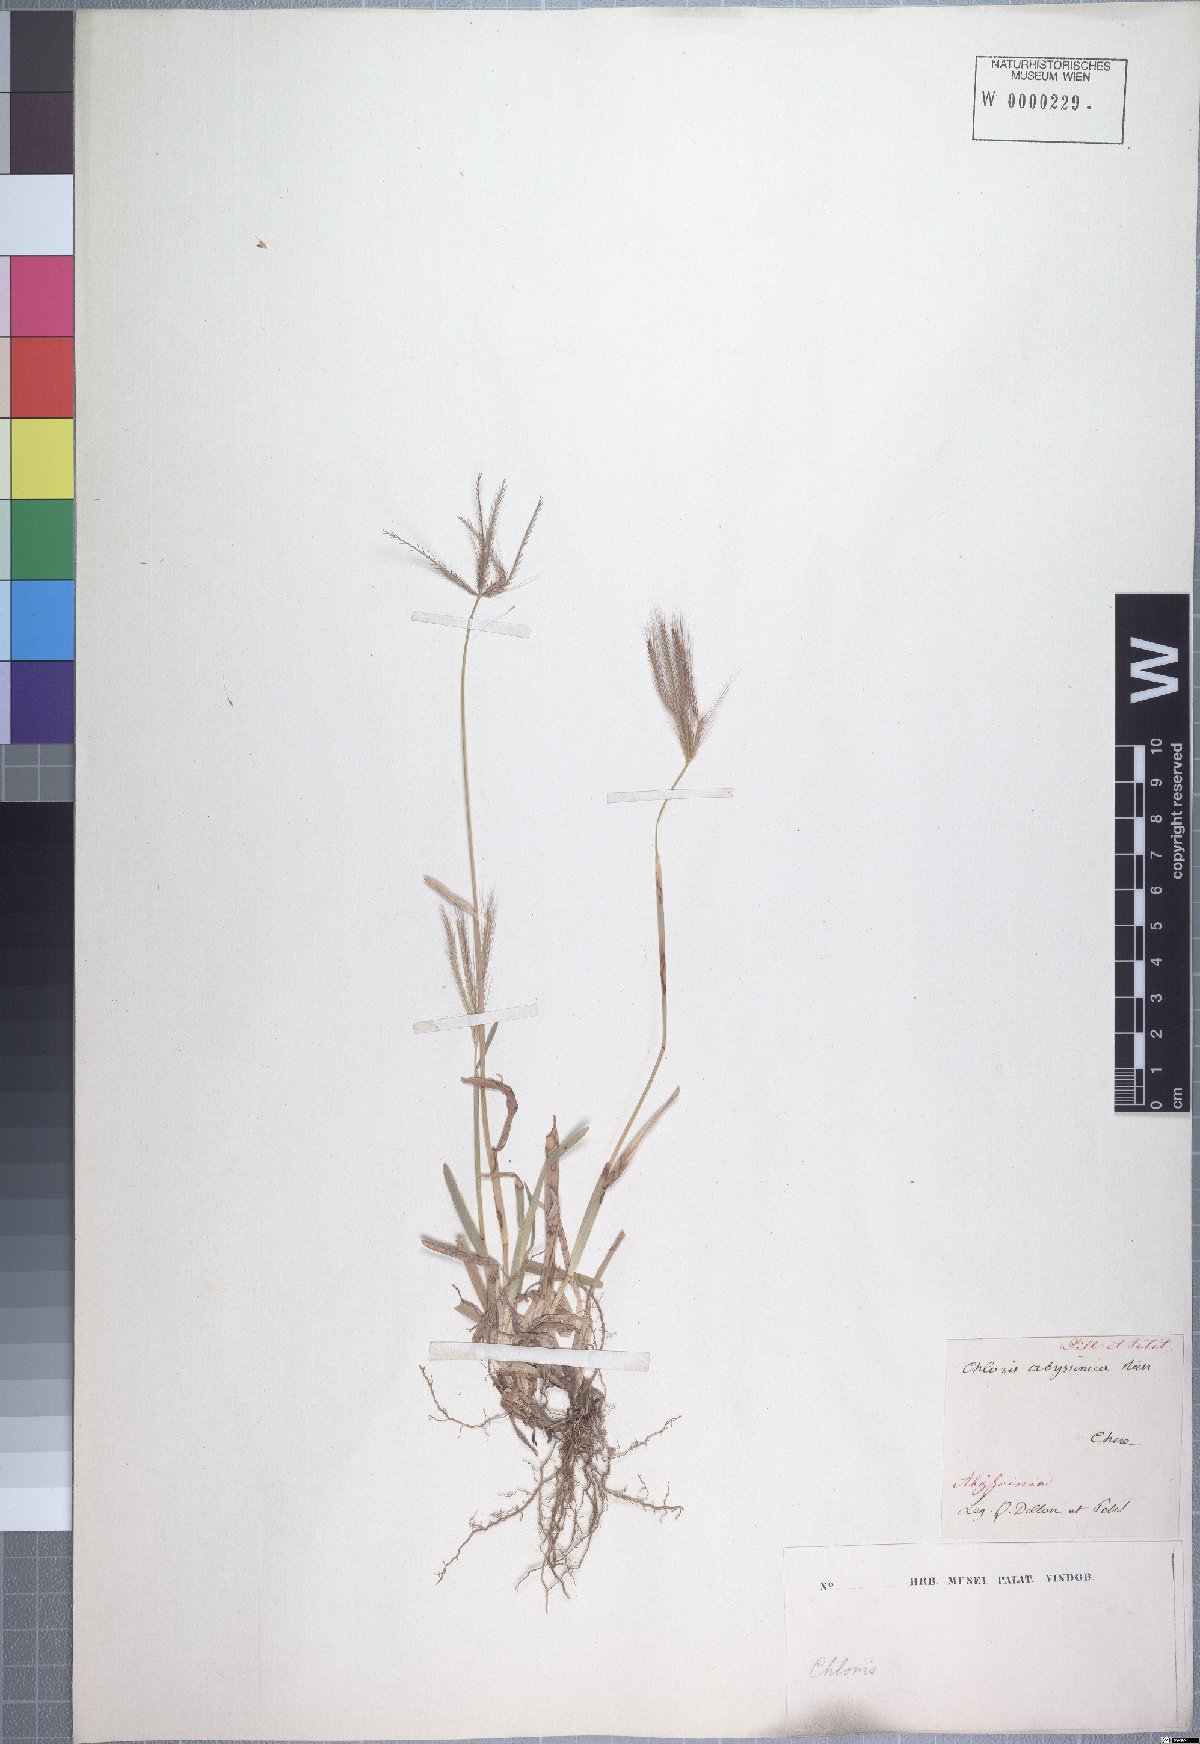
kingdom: Plantae
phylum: Tracheophyta
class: Liliopsida
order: Poales
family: Poaceae
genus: Chloris
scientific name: Chloris gayana
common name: Rhodes grass
